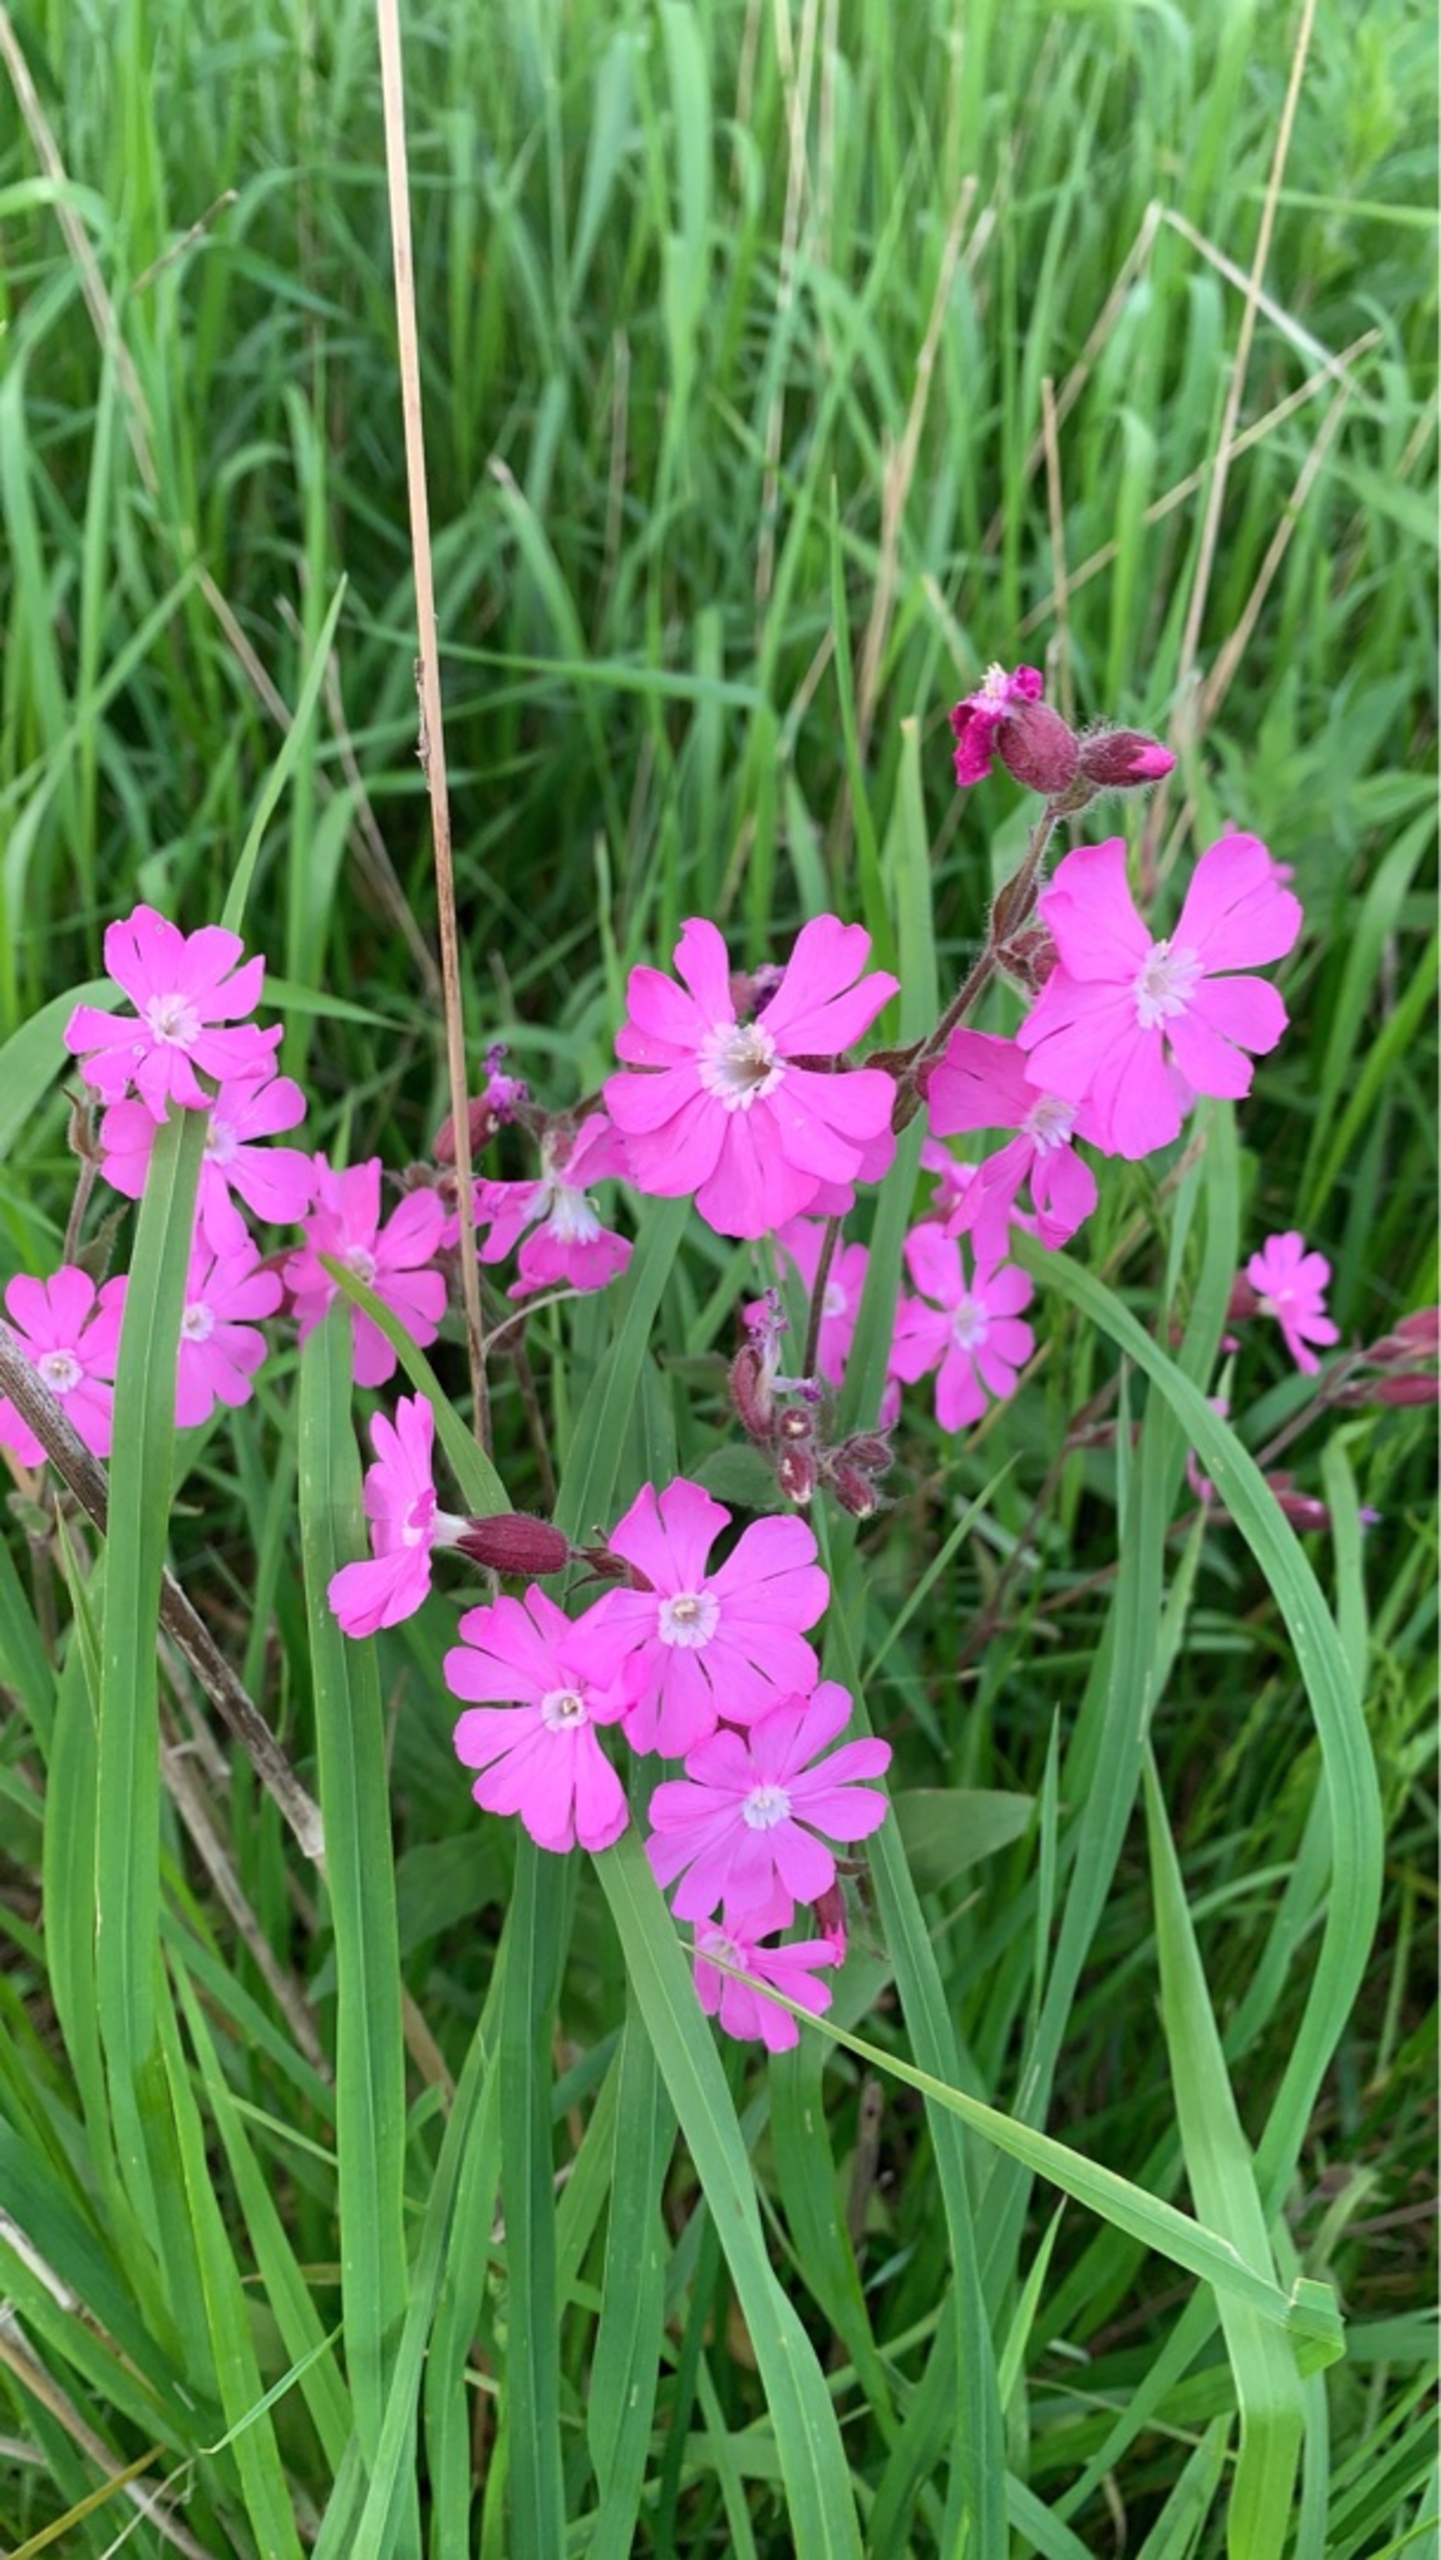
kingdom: Plantae
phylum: Tracheophyta
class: Magnoliopsida
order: Caryophyllales
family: Caryophyllaceae
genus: Silene
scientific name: Silene dioica
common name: Dagpragtstjerne
